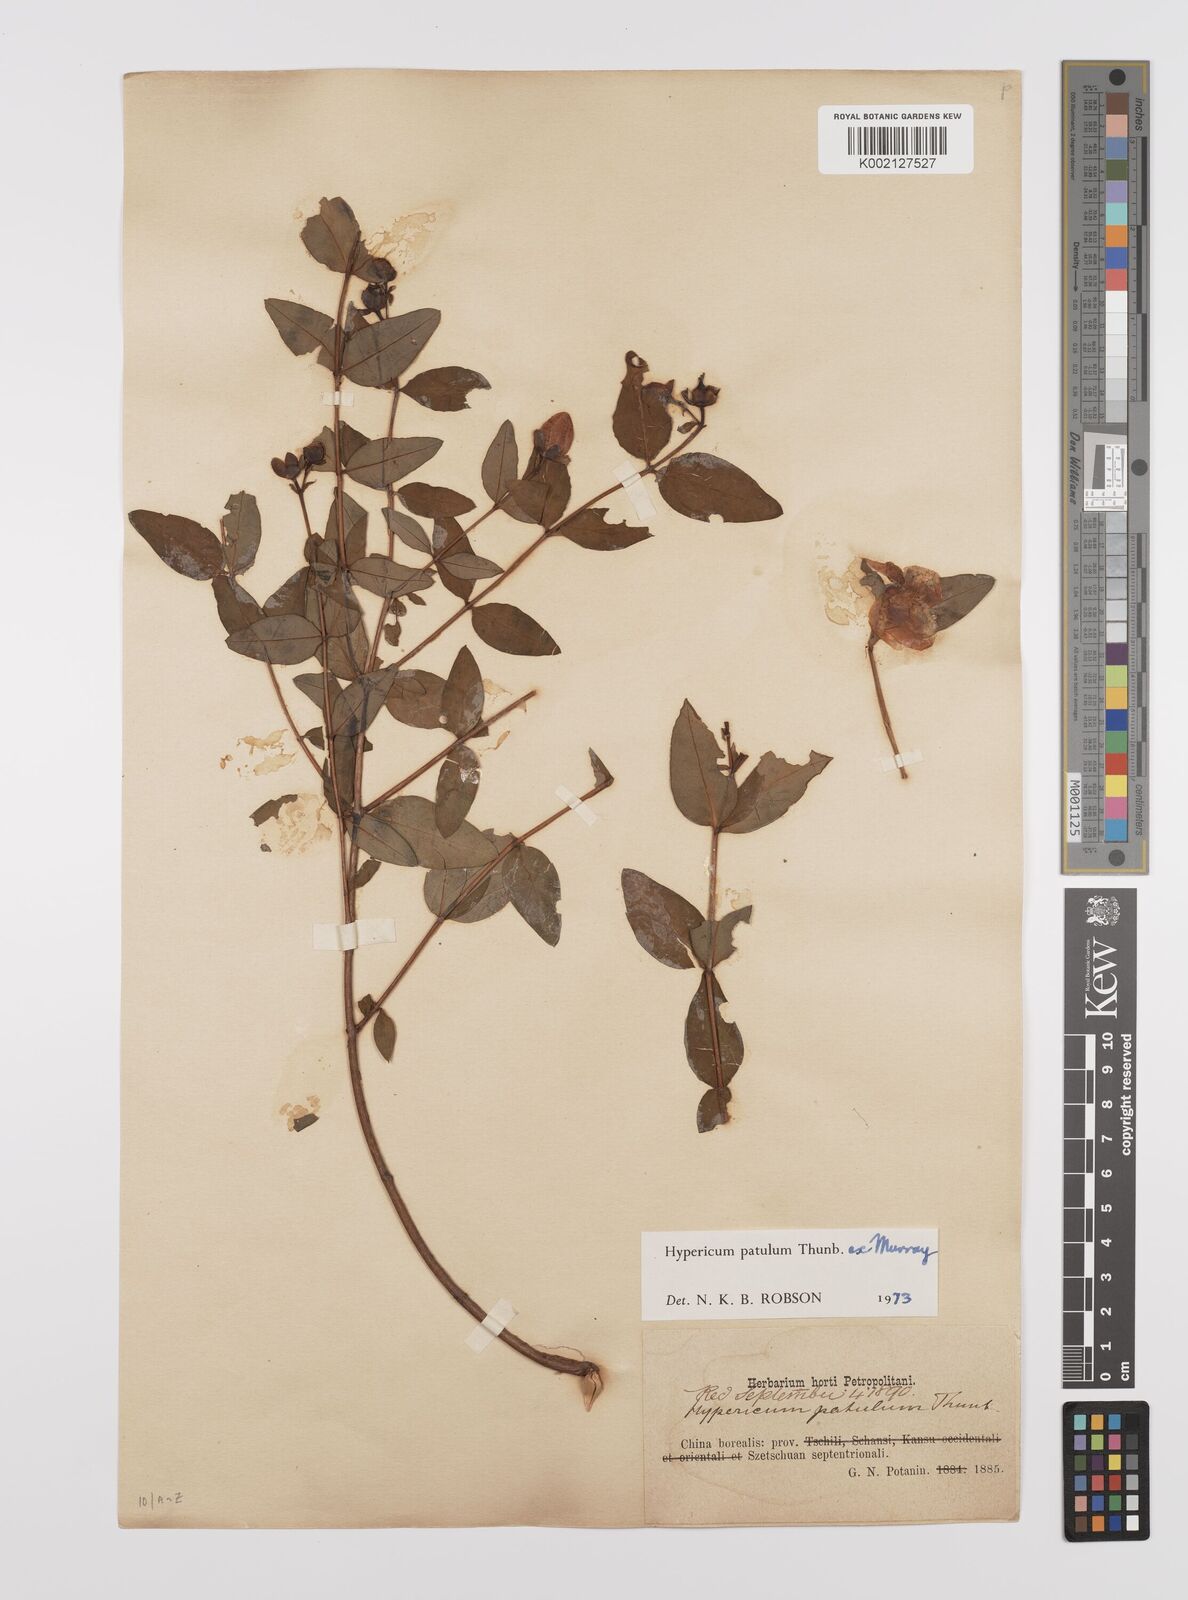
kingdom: Plantae
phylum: Tracheophyta
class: Magnoliopsida
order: Malpighiales
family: Hypericaceae
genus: Hypericum
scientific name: Hypericum patulum
